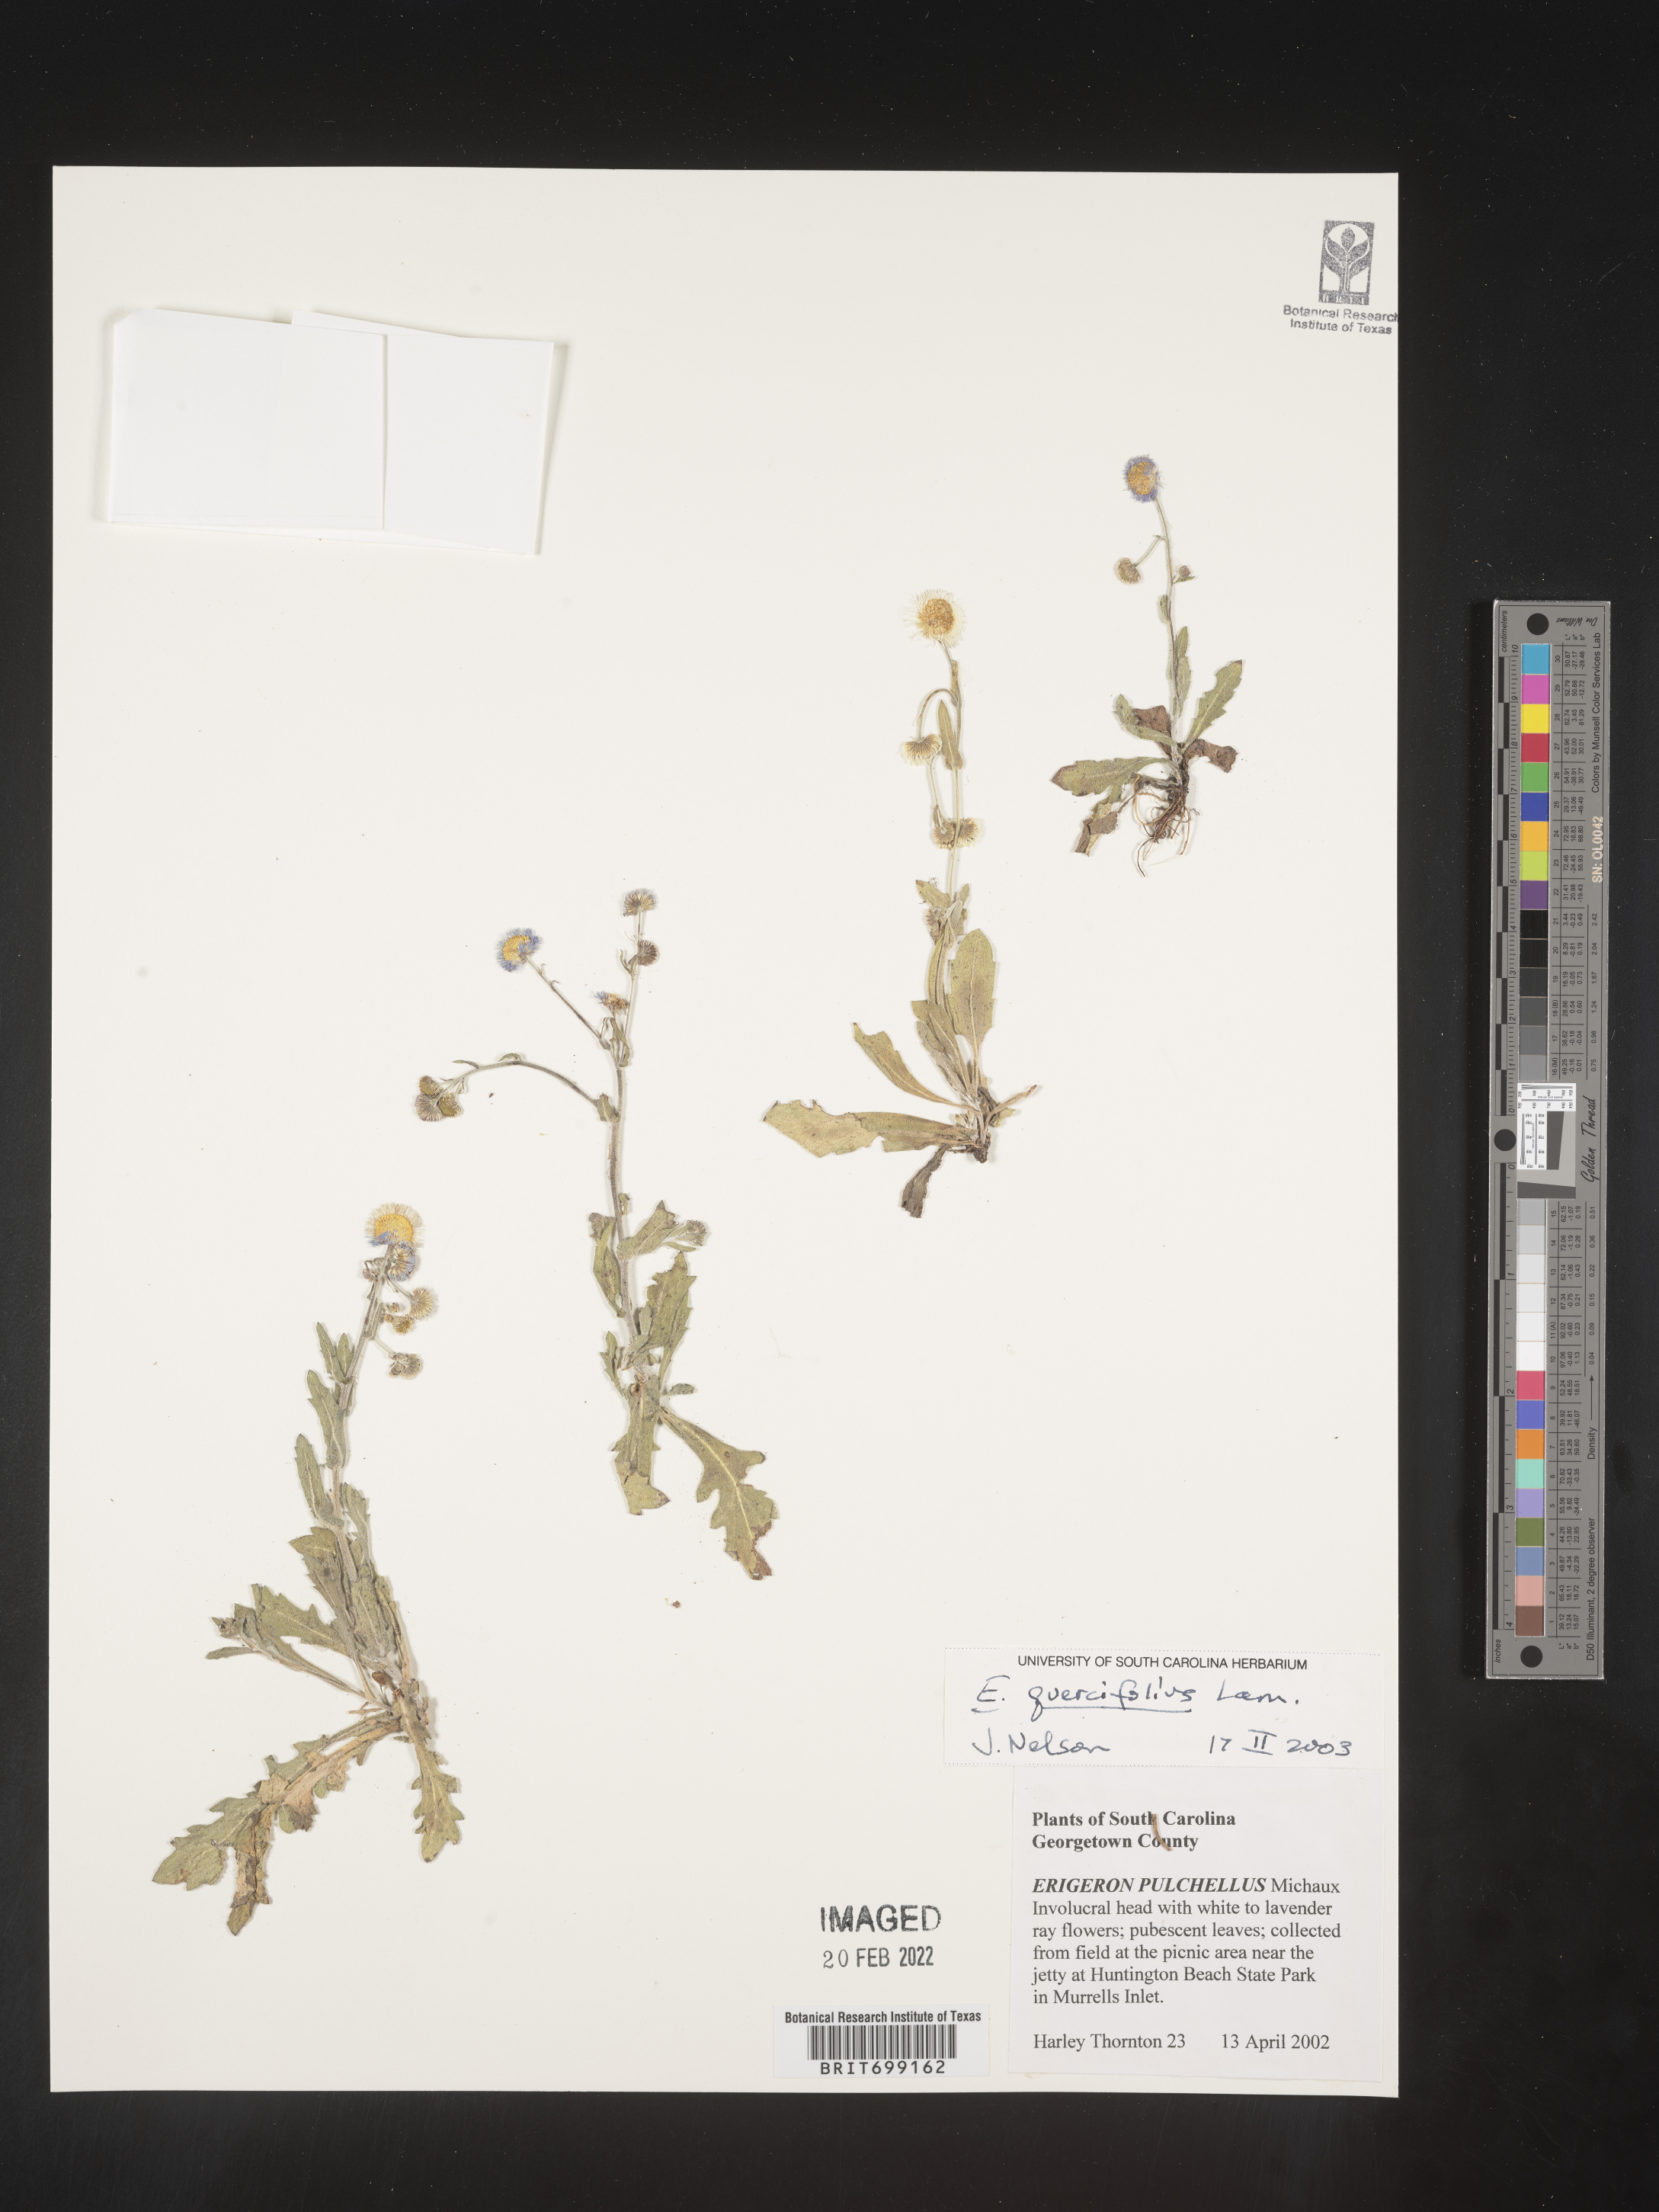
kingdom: Plantae
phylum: Tracheophyta
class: Magnoliopsida
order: Asterales
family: Asteraceae
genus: Erigeron
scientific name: Erigeron quercifolius
